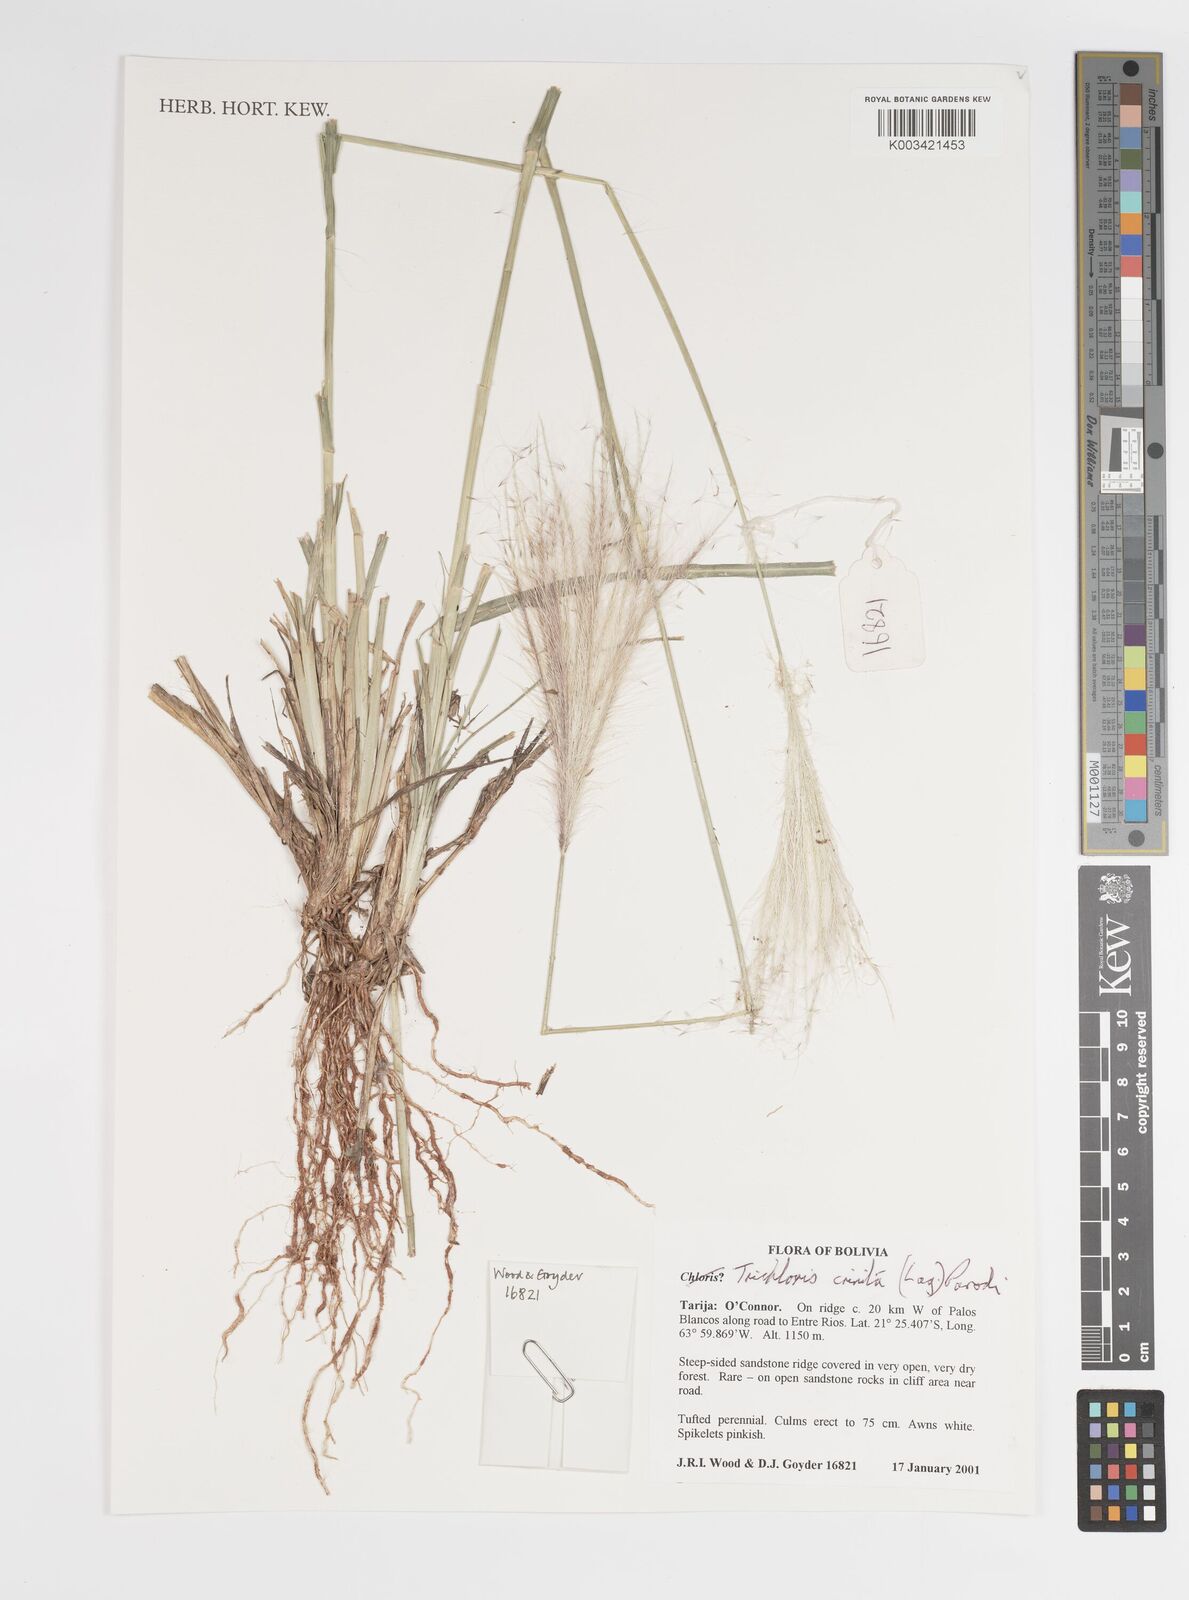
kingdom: Plantae
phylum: Tracheophyta
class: Liliopsida
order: Poales
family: Poaceae
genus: Leptochloa
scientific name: Leptochloa crinita
